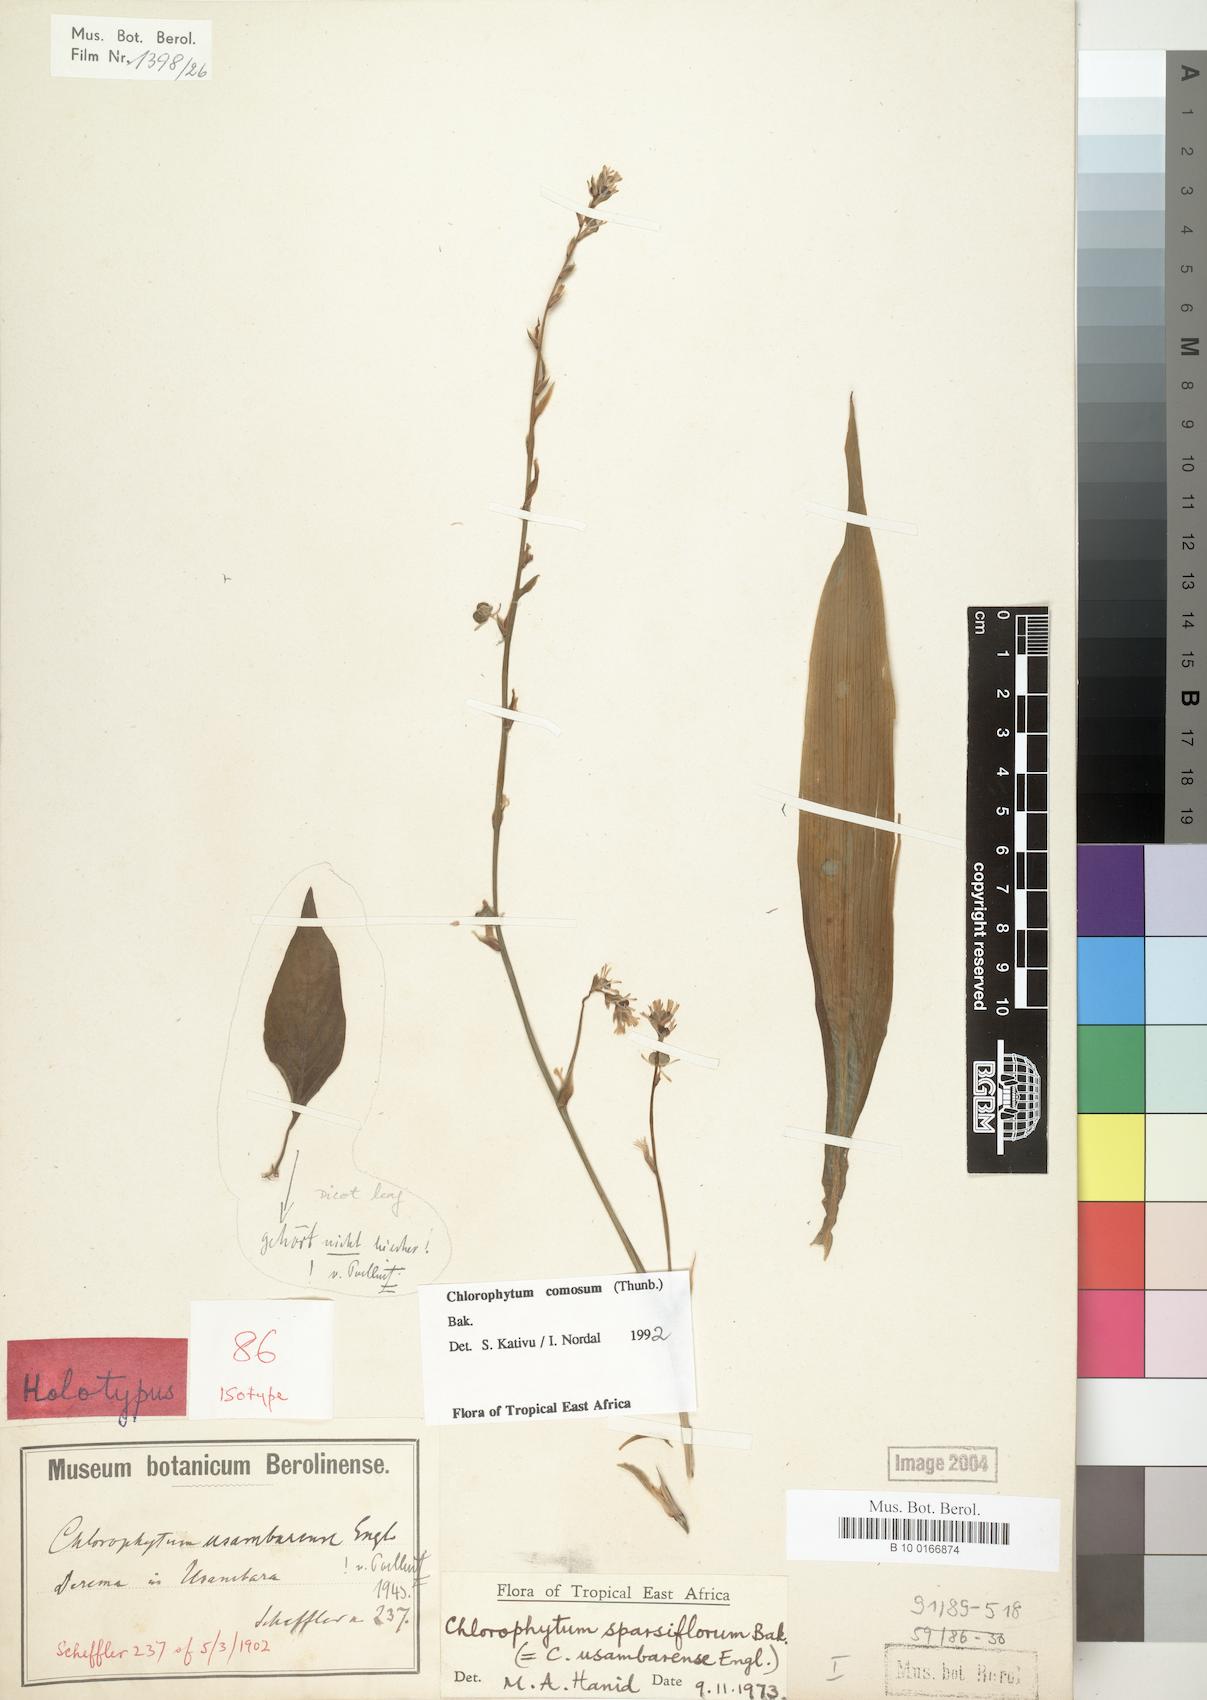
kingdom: Plantae
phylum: Tracheophyta
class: Liliopsida
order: Asparagales
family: Asparagaceae
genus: Chlorophytum
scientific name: Chlorophytum comosum
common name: Spider plant
